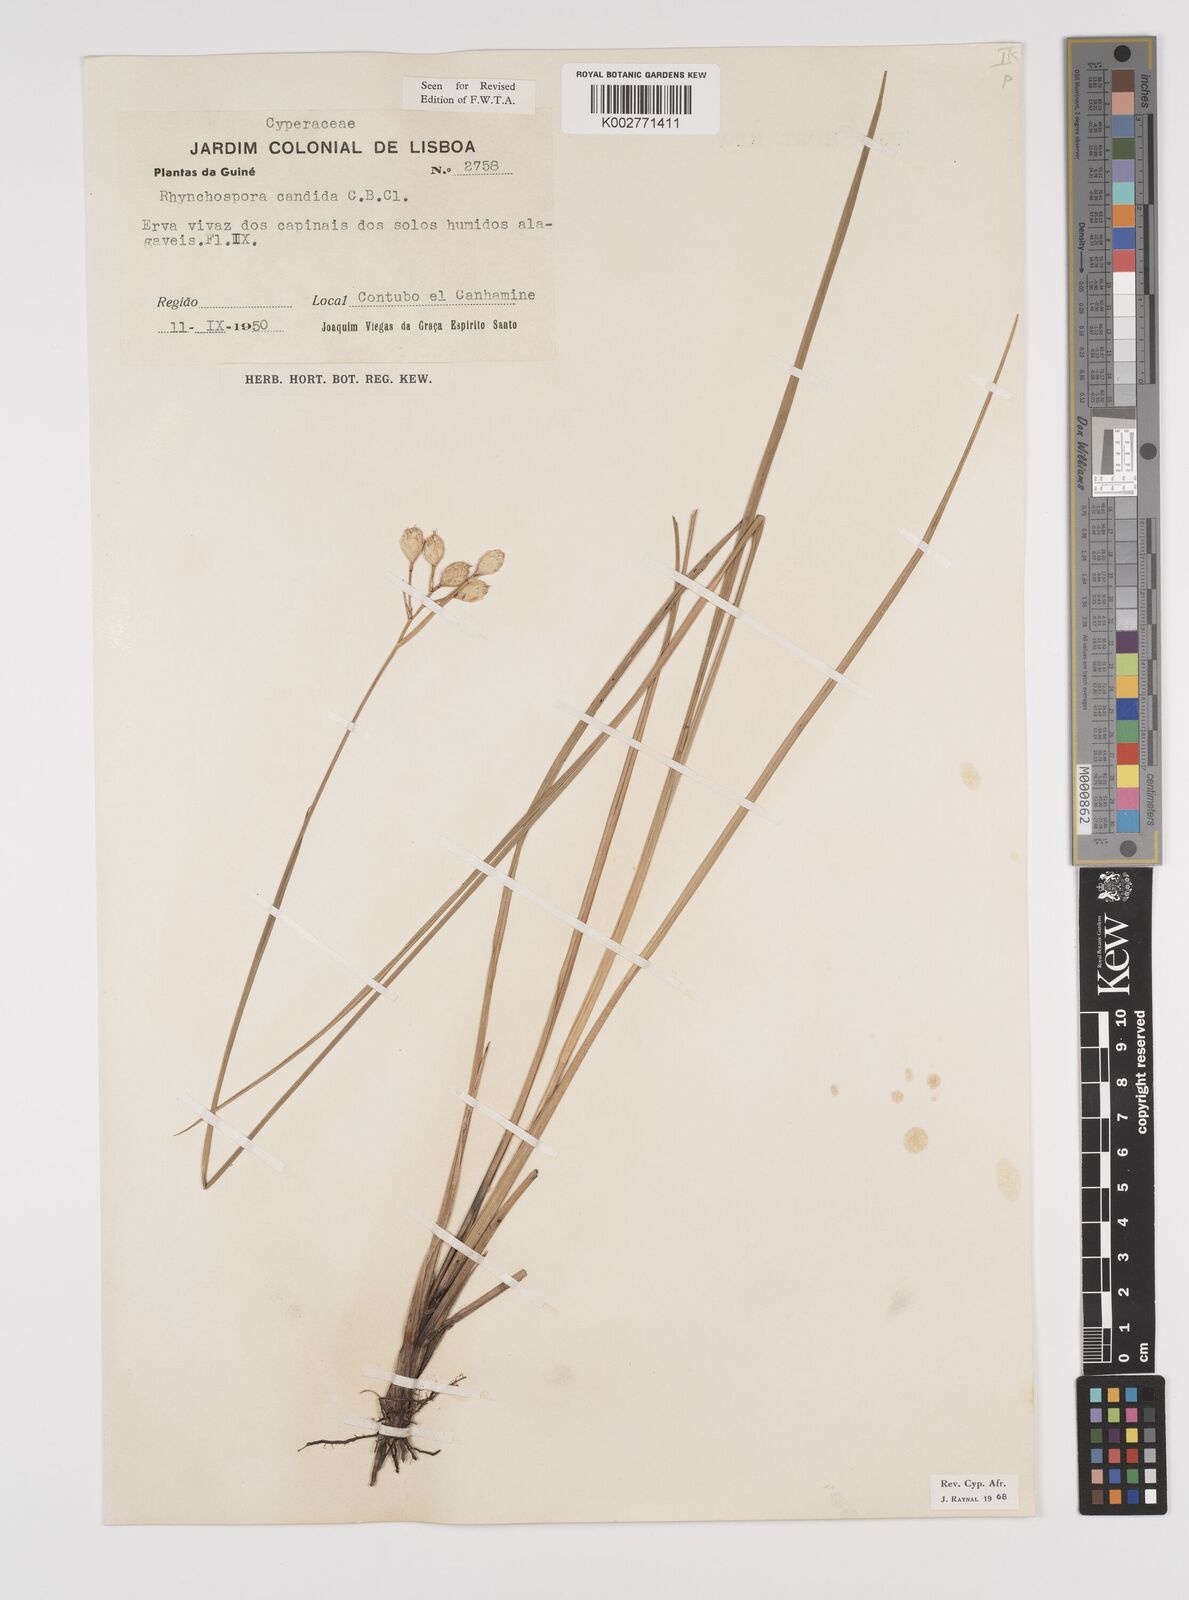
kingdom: Plantae
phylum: Tracheophyta
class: Liliopsida
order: Poales
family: Cyperaceae
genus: Rhynchospora
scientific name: Rhynchospora candida
